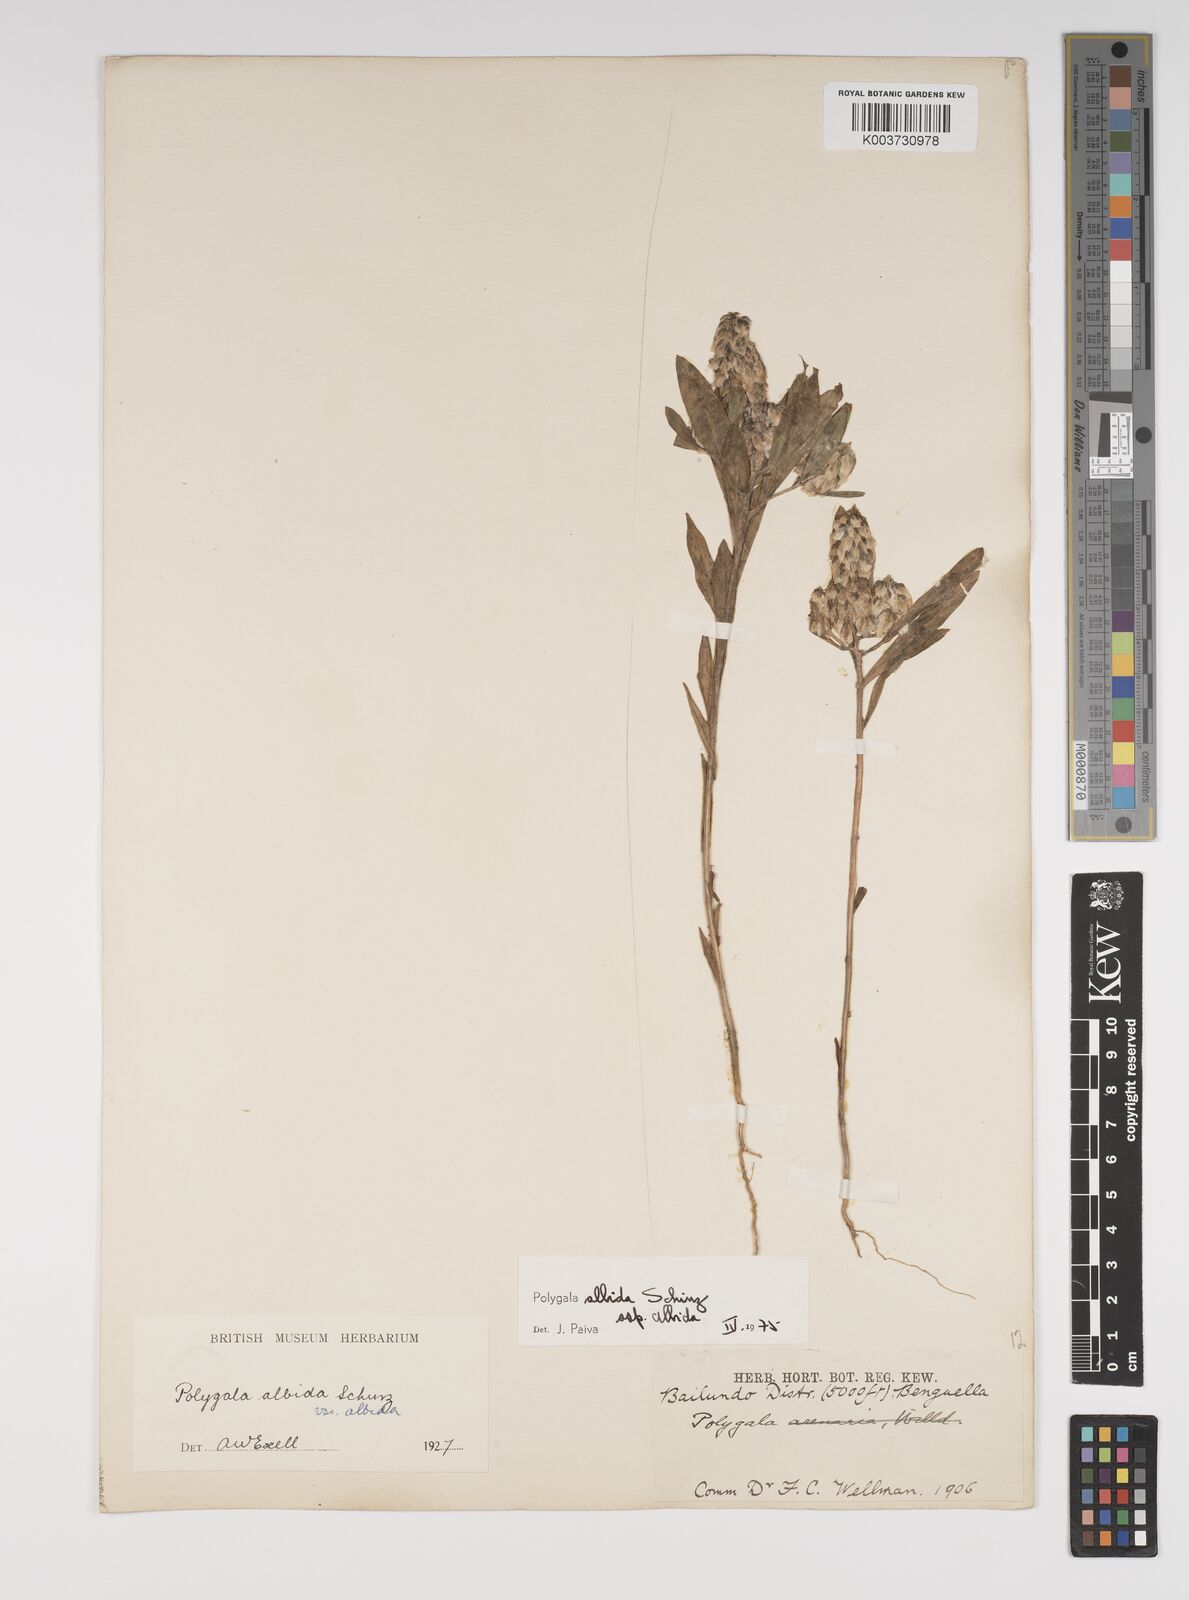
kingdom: Plantae
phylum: Tracheophyta
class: Magnoliopsida
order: Fabales
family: Polygalaceae
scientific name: Polygalaceae
